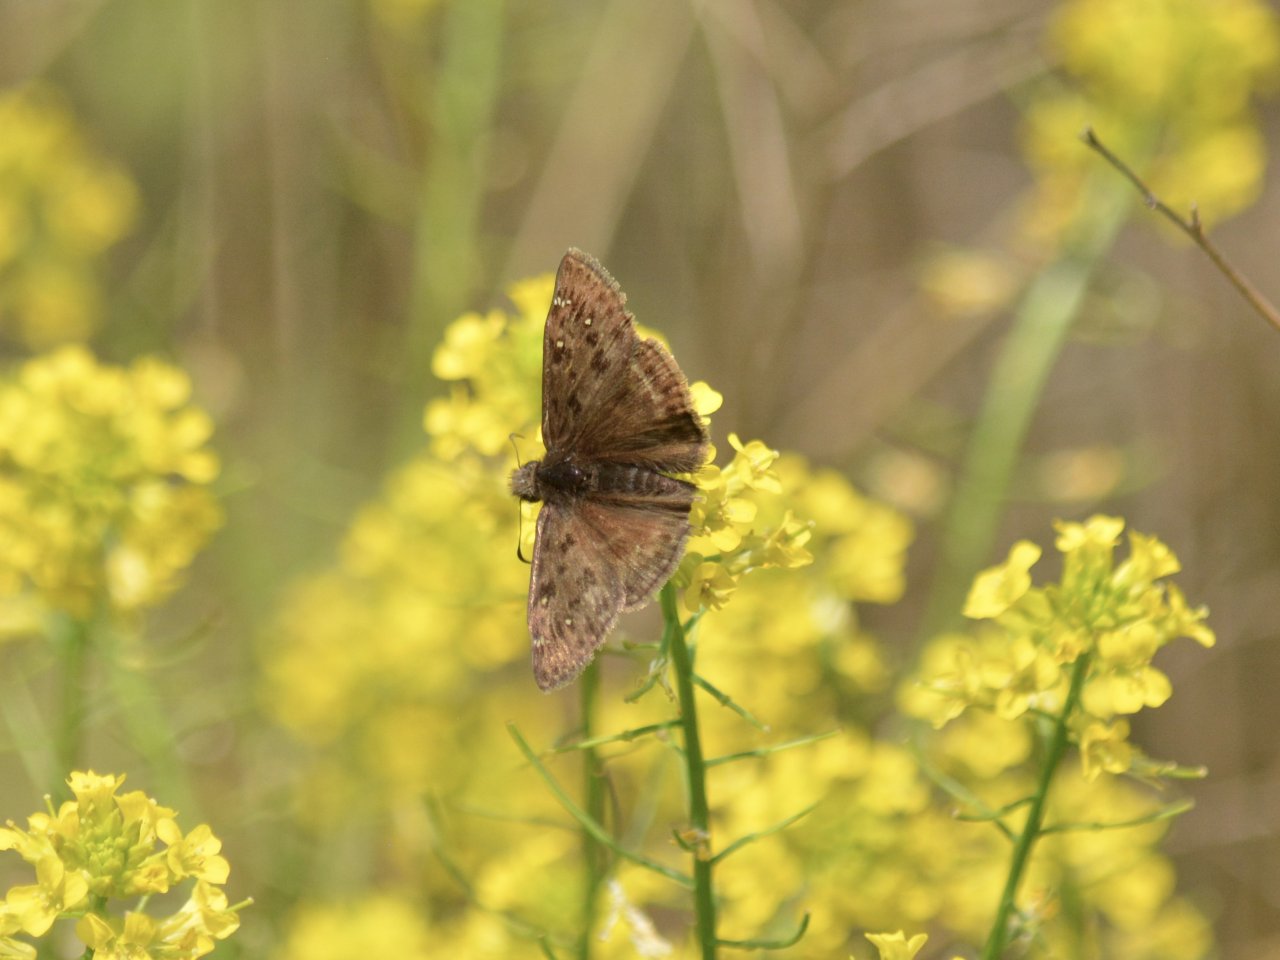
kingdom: Animalia
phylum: Arthropoda
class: Insecta
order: Lepidoptera
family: Hesperiidae
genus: Gesta
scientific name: Gesta
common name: Horace's Duskywing
